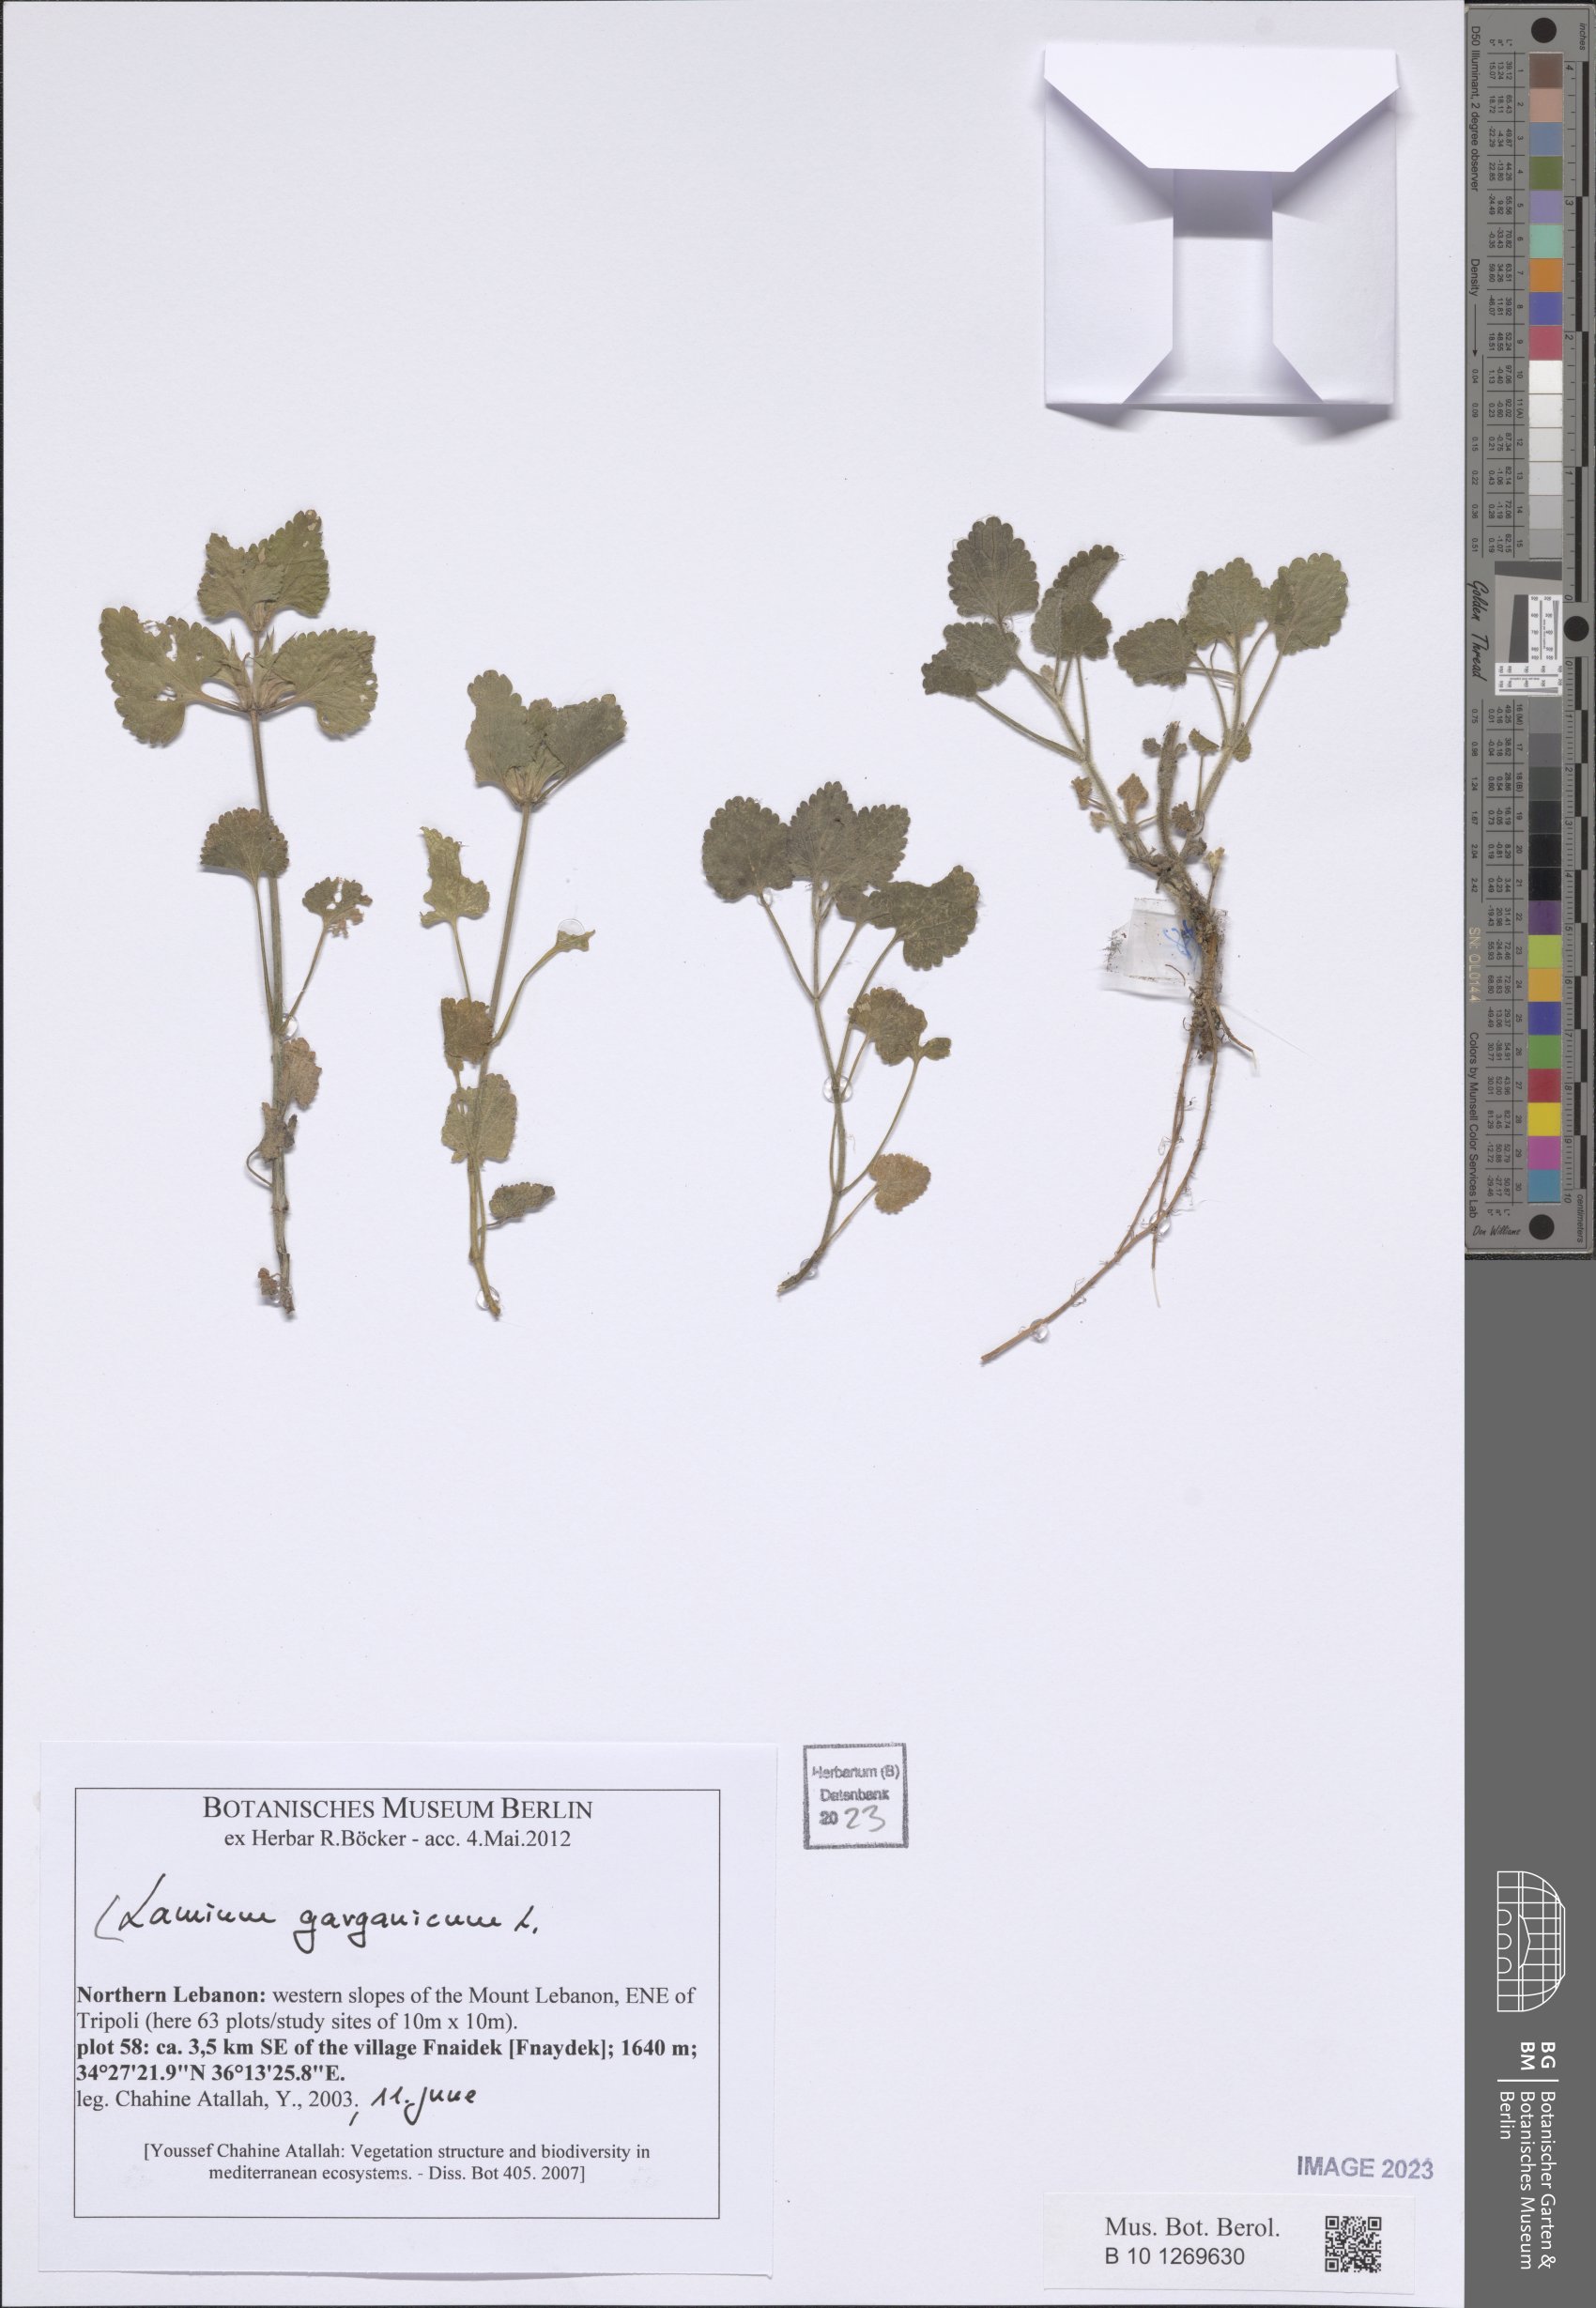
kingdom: Plantae
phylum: Tracheophyta
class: Magnoliopsida
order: Lamiales
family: Lamiaceae
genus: Lamium
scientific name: Lamium garganicum
